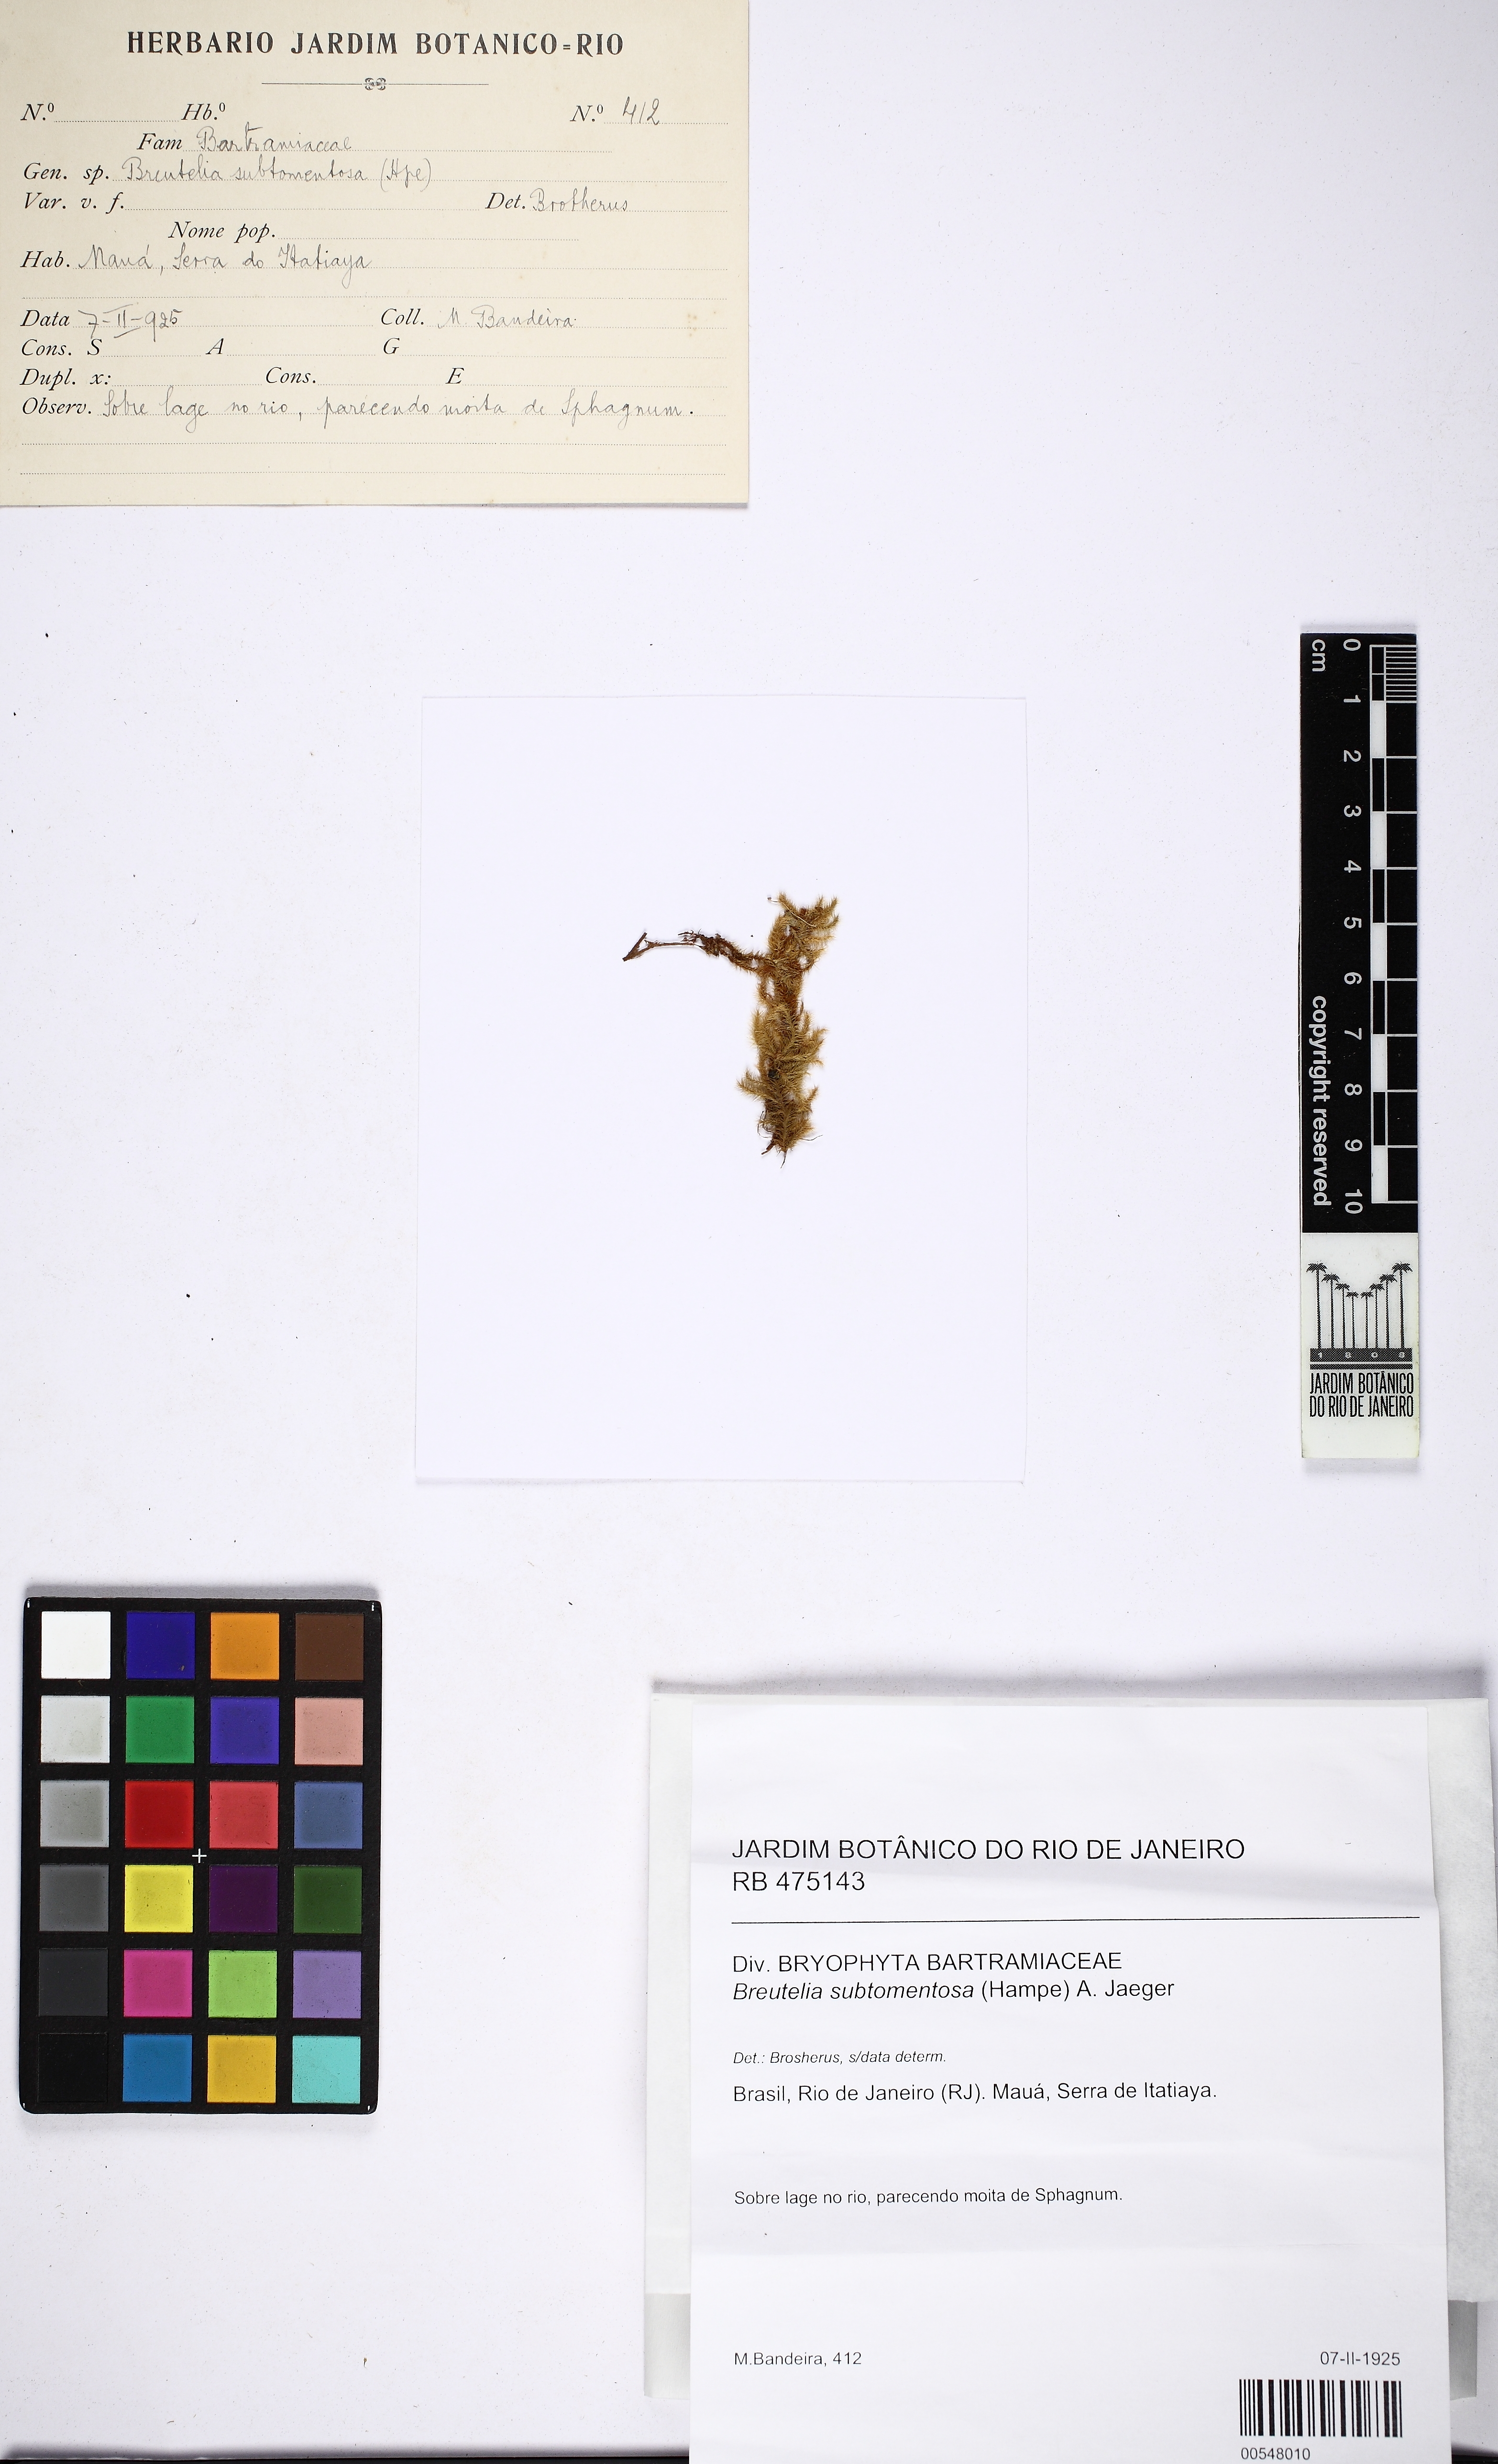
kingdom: Plantae
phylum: Bryophyta
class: Bryopsida
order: Bartramiales
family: Bartramiaceae
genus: Breutelia
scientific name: Breutelia subtomentosa
